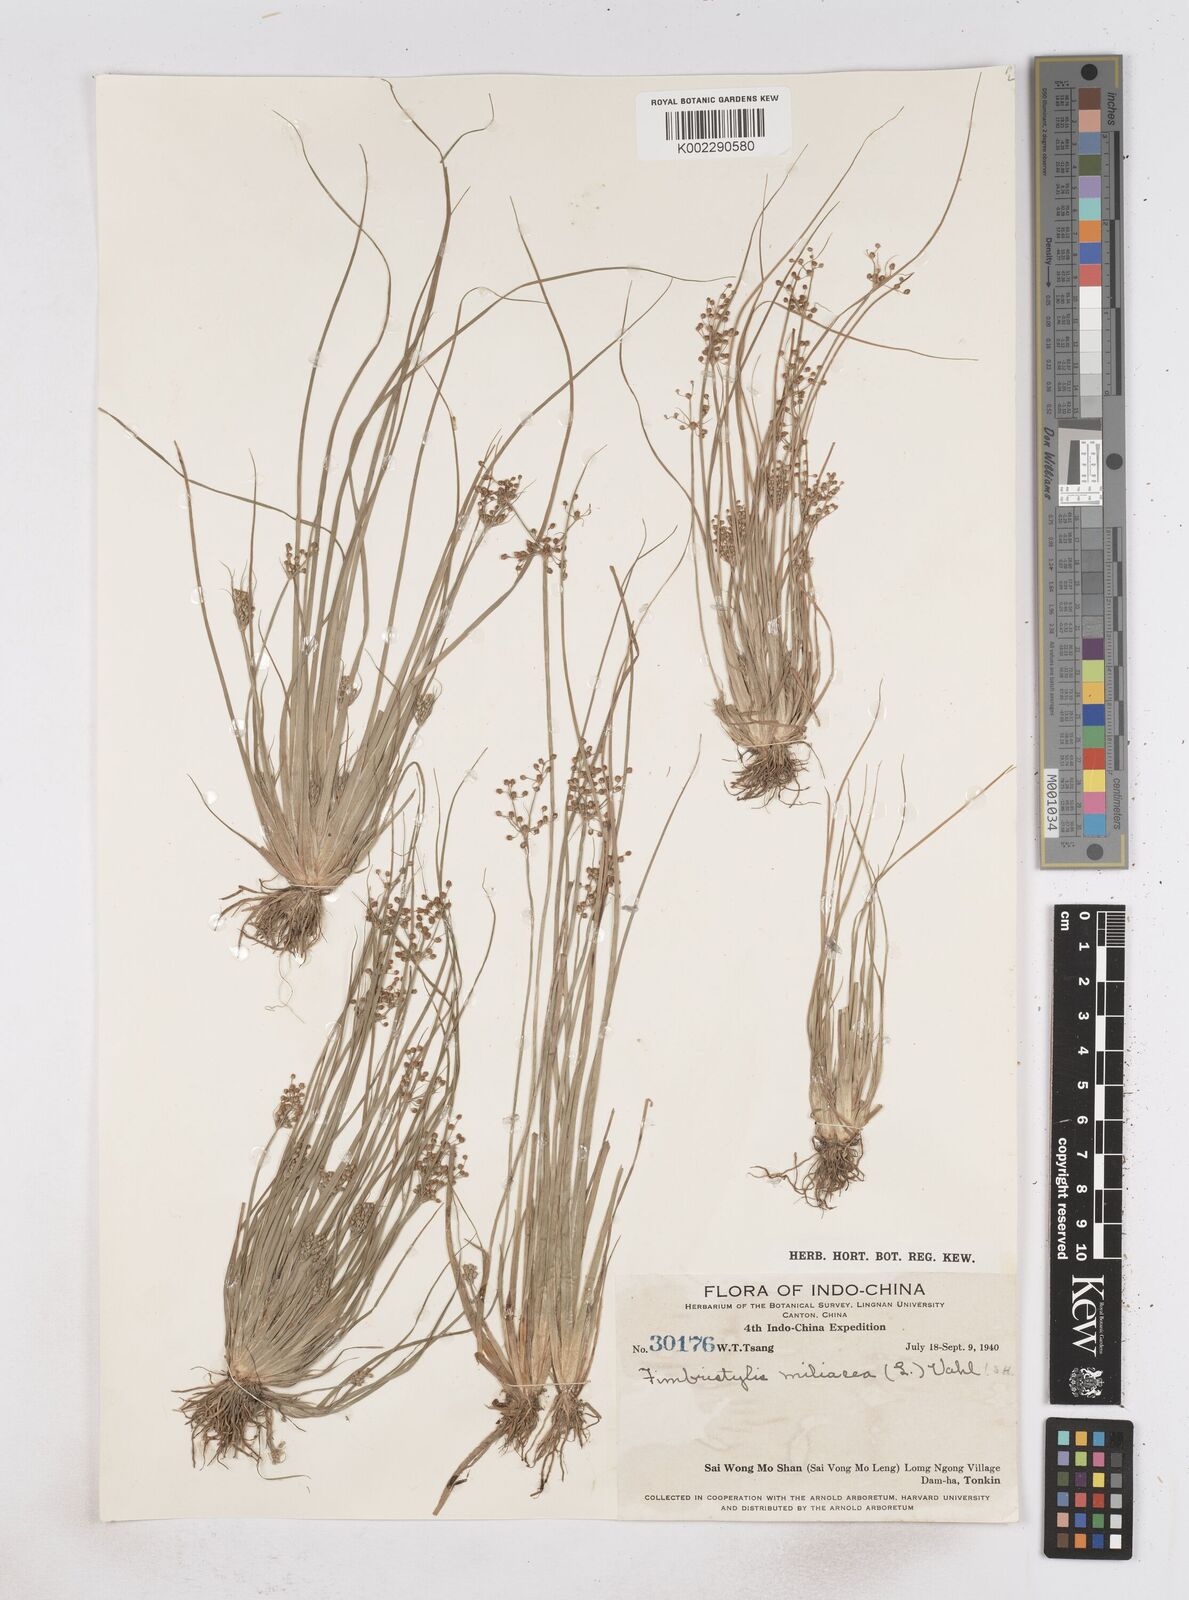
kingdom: Plantae
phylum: Tracheophyta
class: Liliopsida
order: Poales
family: Cyperaceae
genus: Fimbristylis
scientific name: Fimbristylis littoralis
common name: Fimbry
